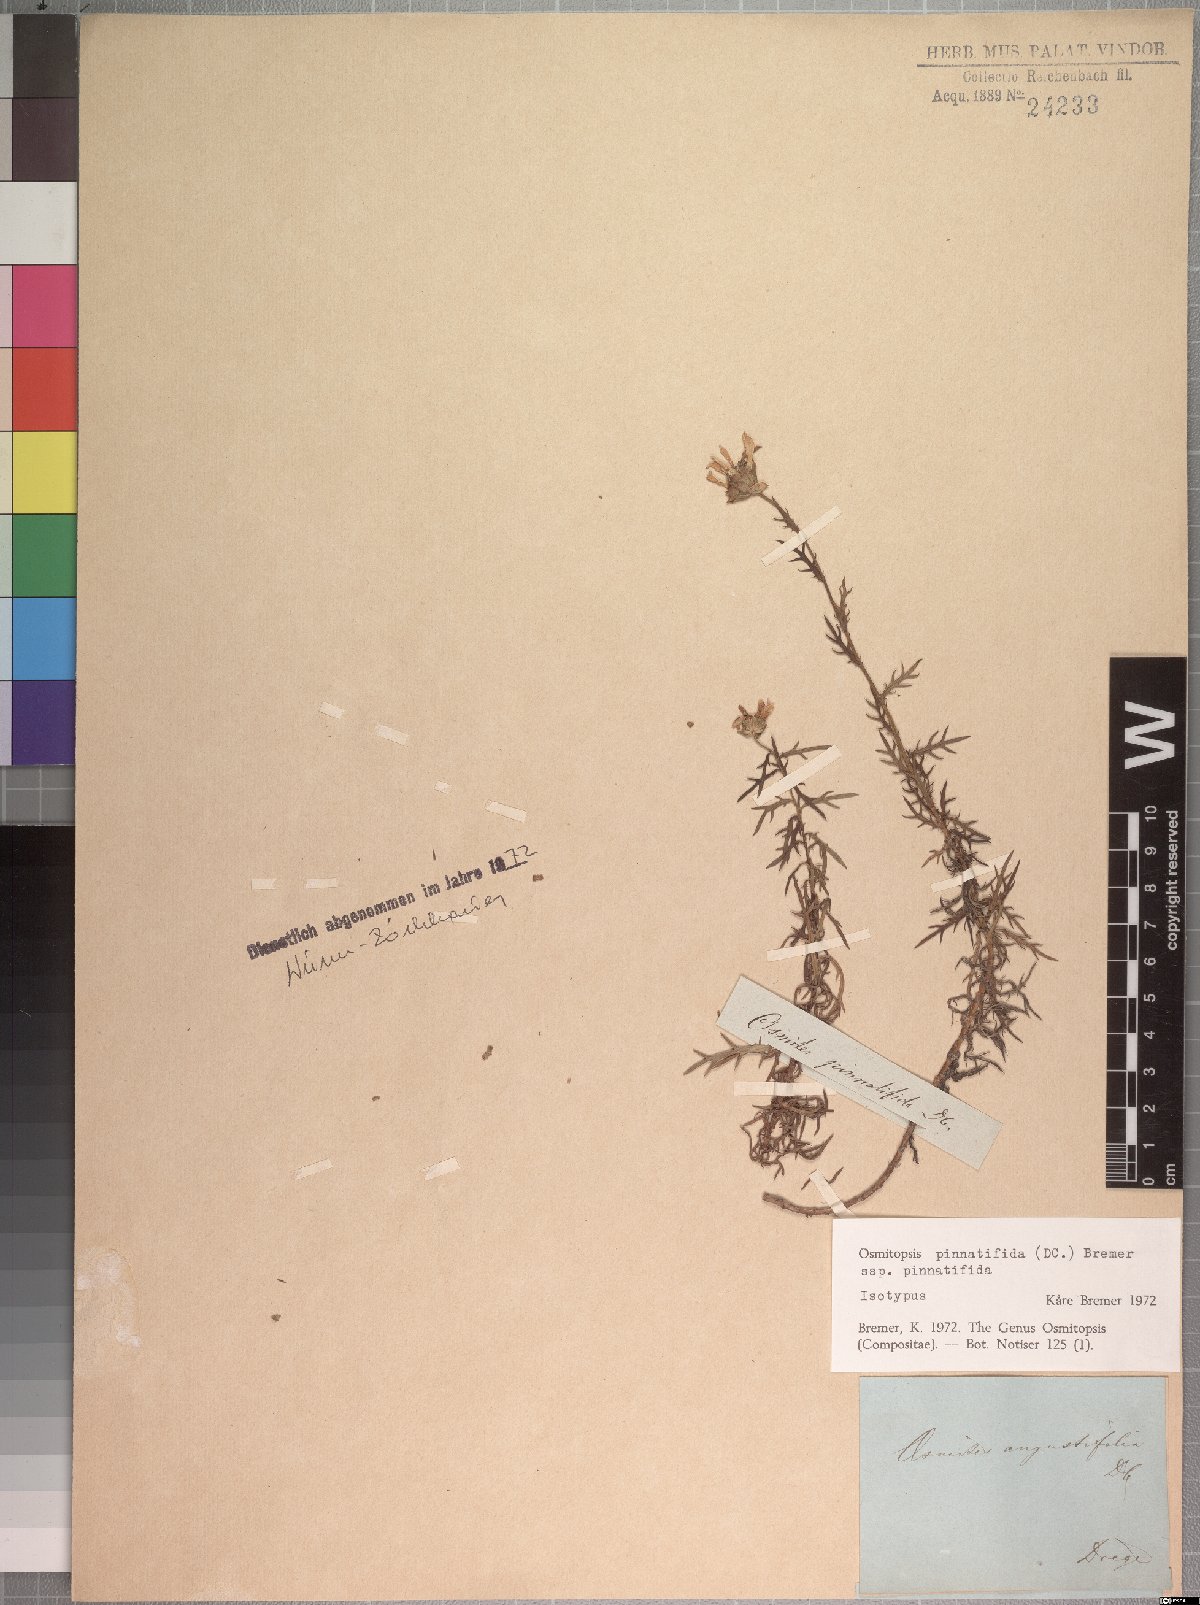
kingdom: Plantae
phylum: Tracheophyta
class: Magnoliopsida
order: Asterales
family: Asteraceae
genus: Osmitopsis
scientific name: Osmitopsis pinnatifida
